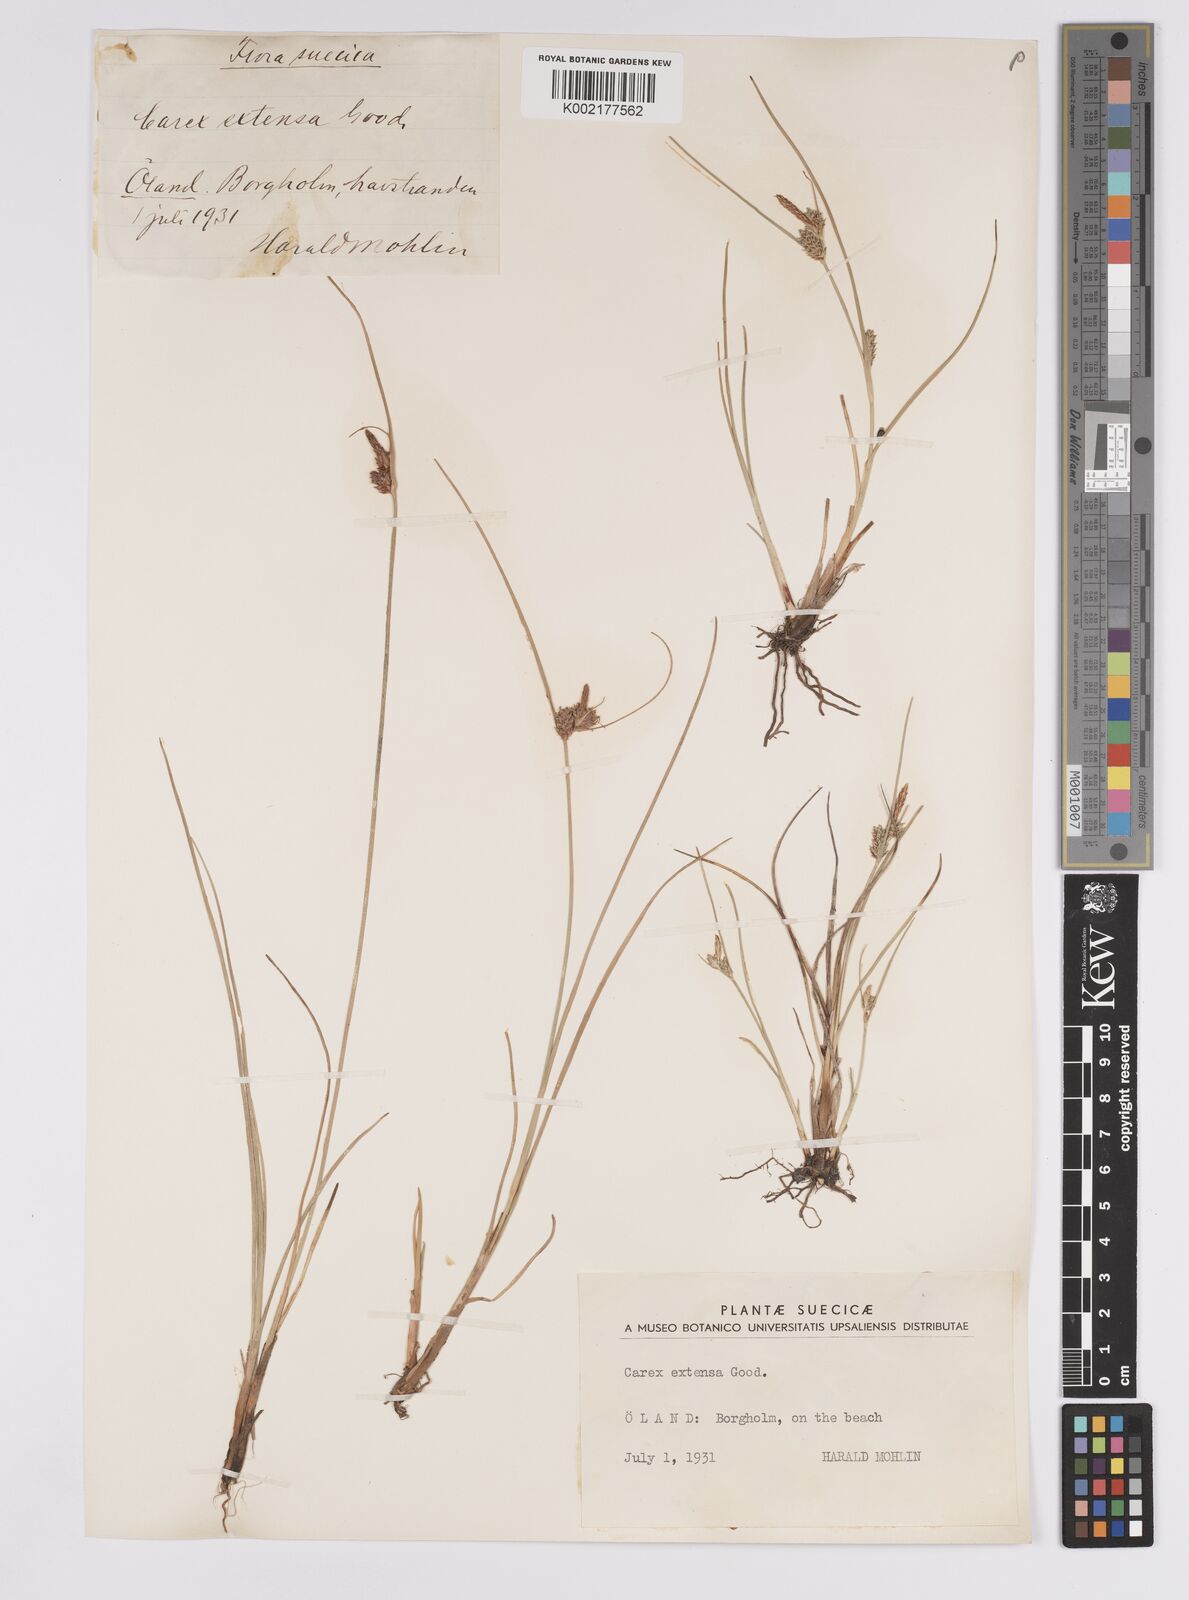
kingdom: Plantae
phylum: Tracheophyta
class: Liliopsida
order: Poales
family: Cyperaceae
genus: Carex
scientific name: Carex extensa
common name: Long-bracted sedge
